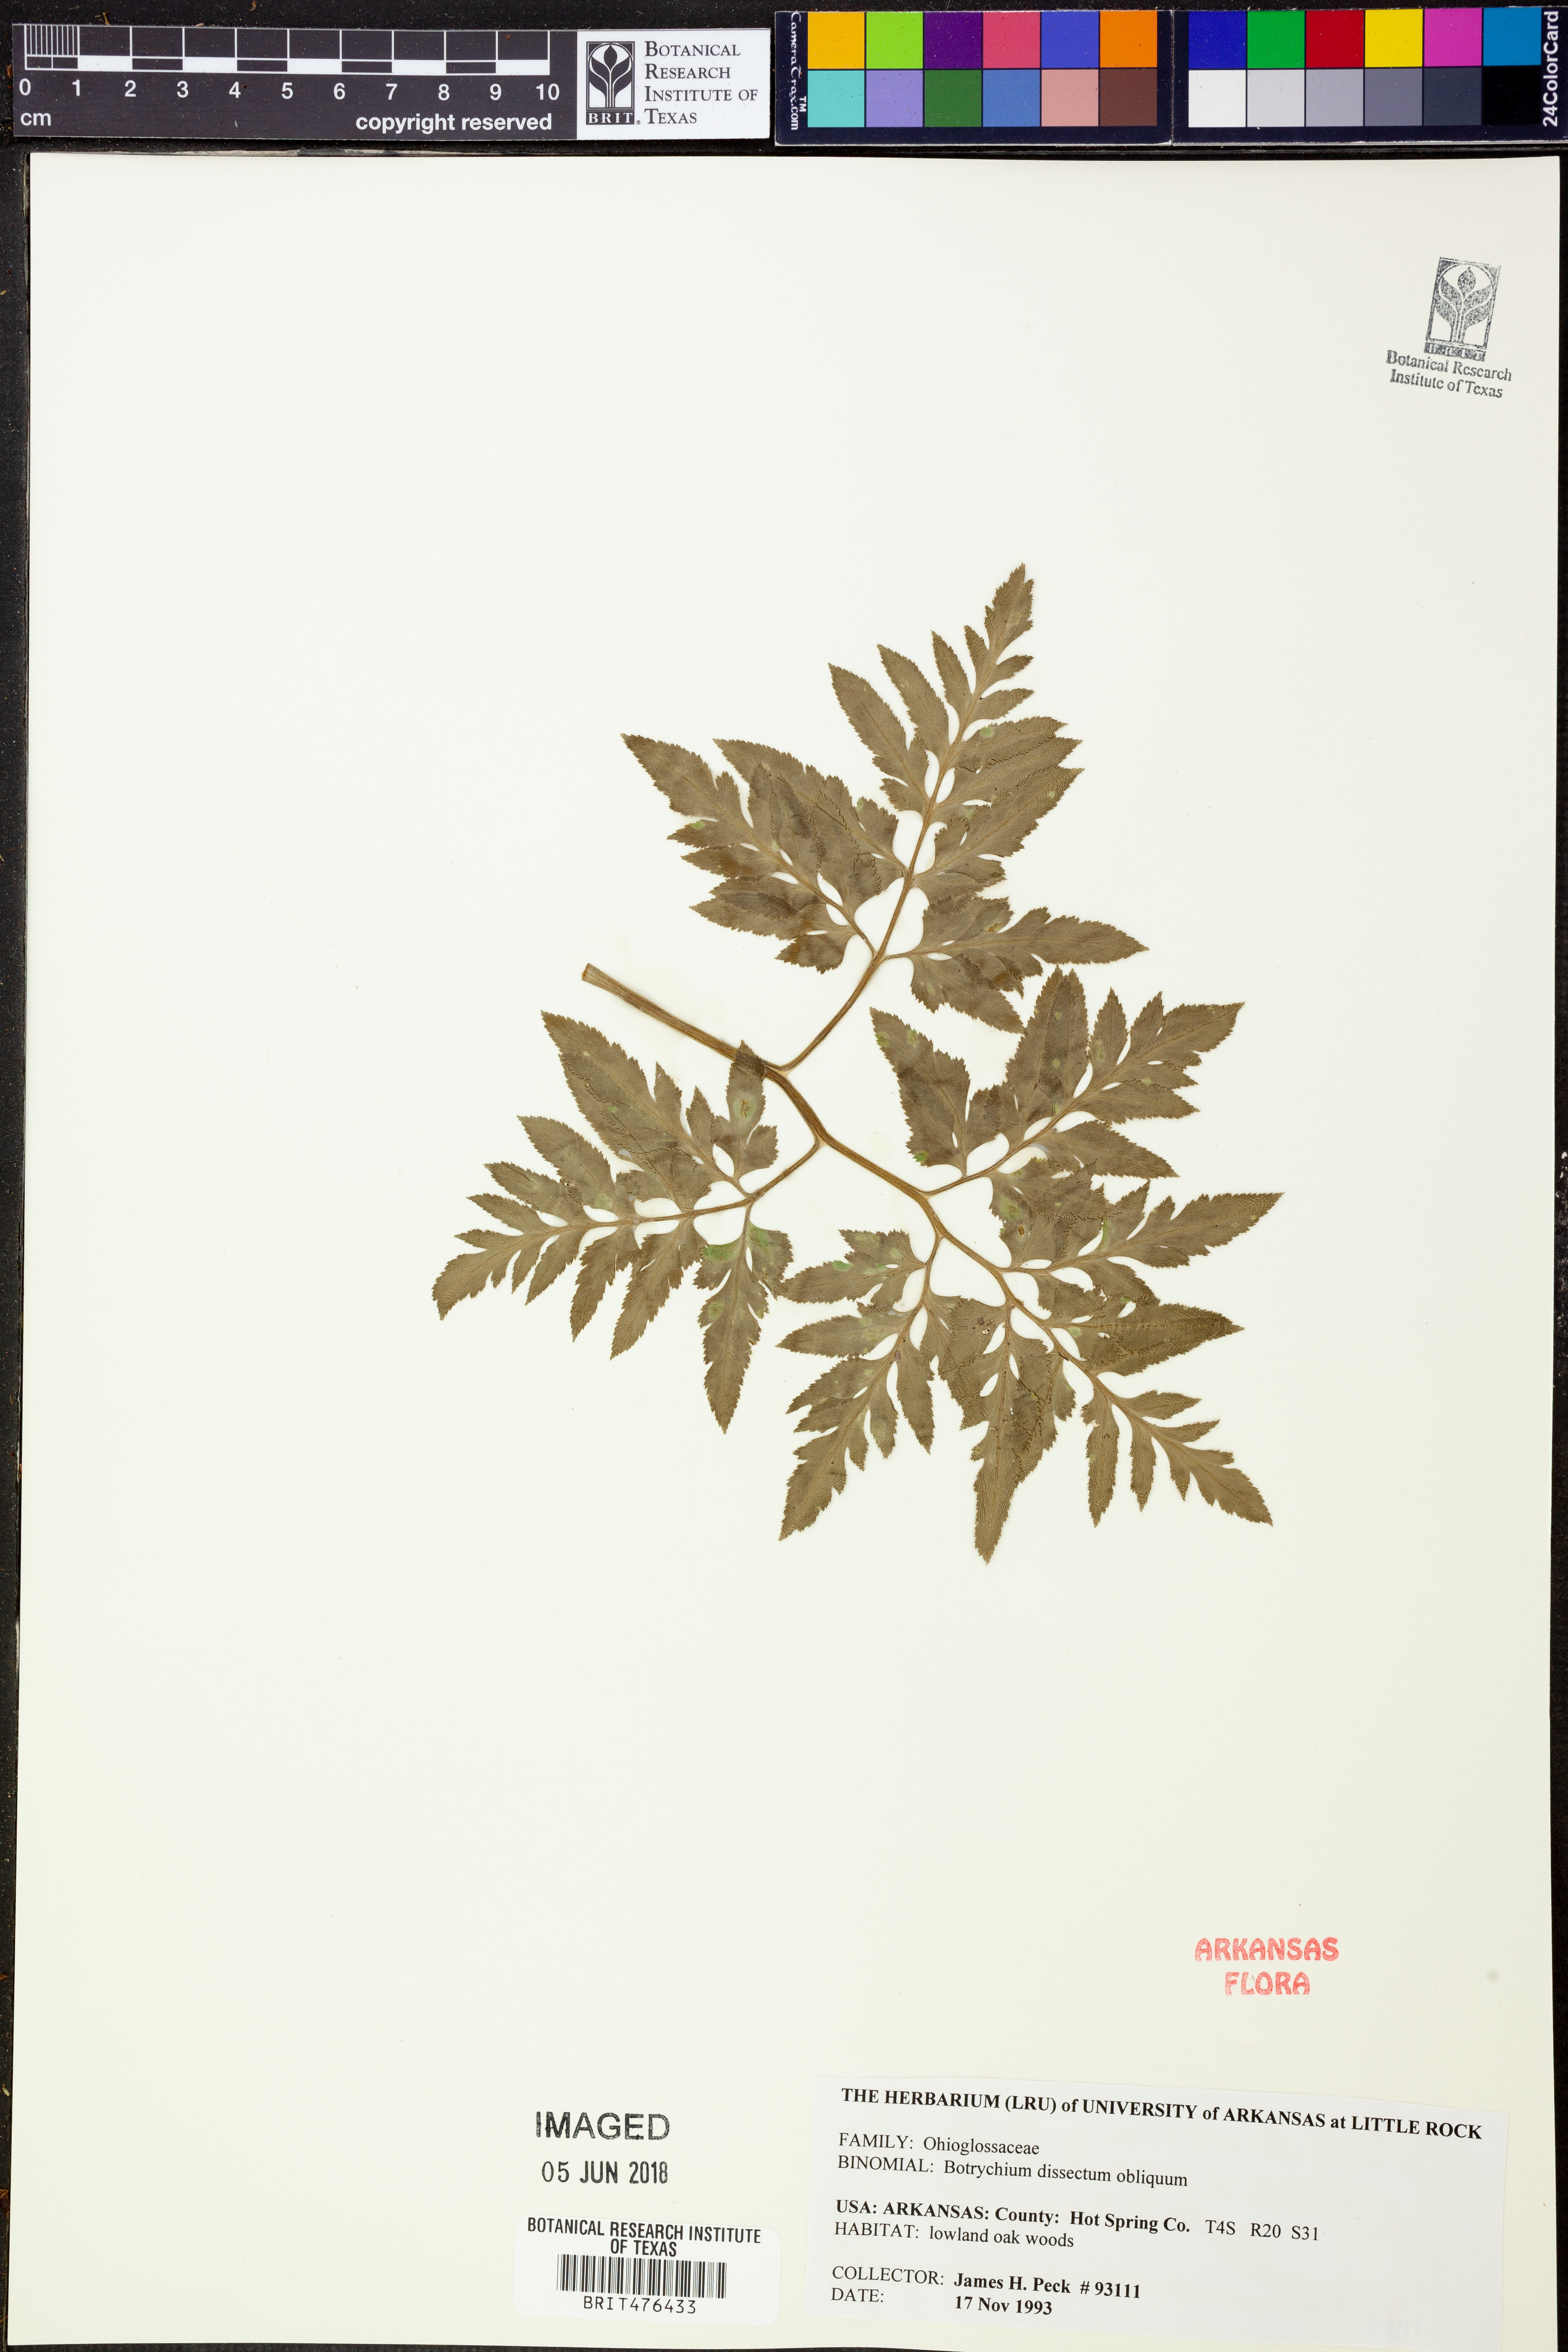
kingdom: Plantae
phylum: Tracheophyta
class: Polypodiopsida
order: Ophioglossales
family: Ophioglossaceae
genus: Sceptridium
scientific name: Sceptridium dissectum
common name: Cut-leaved grapefern
